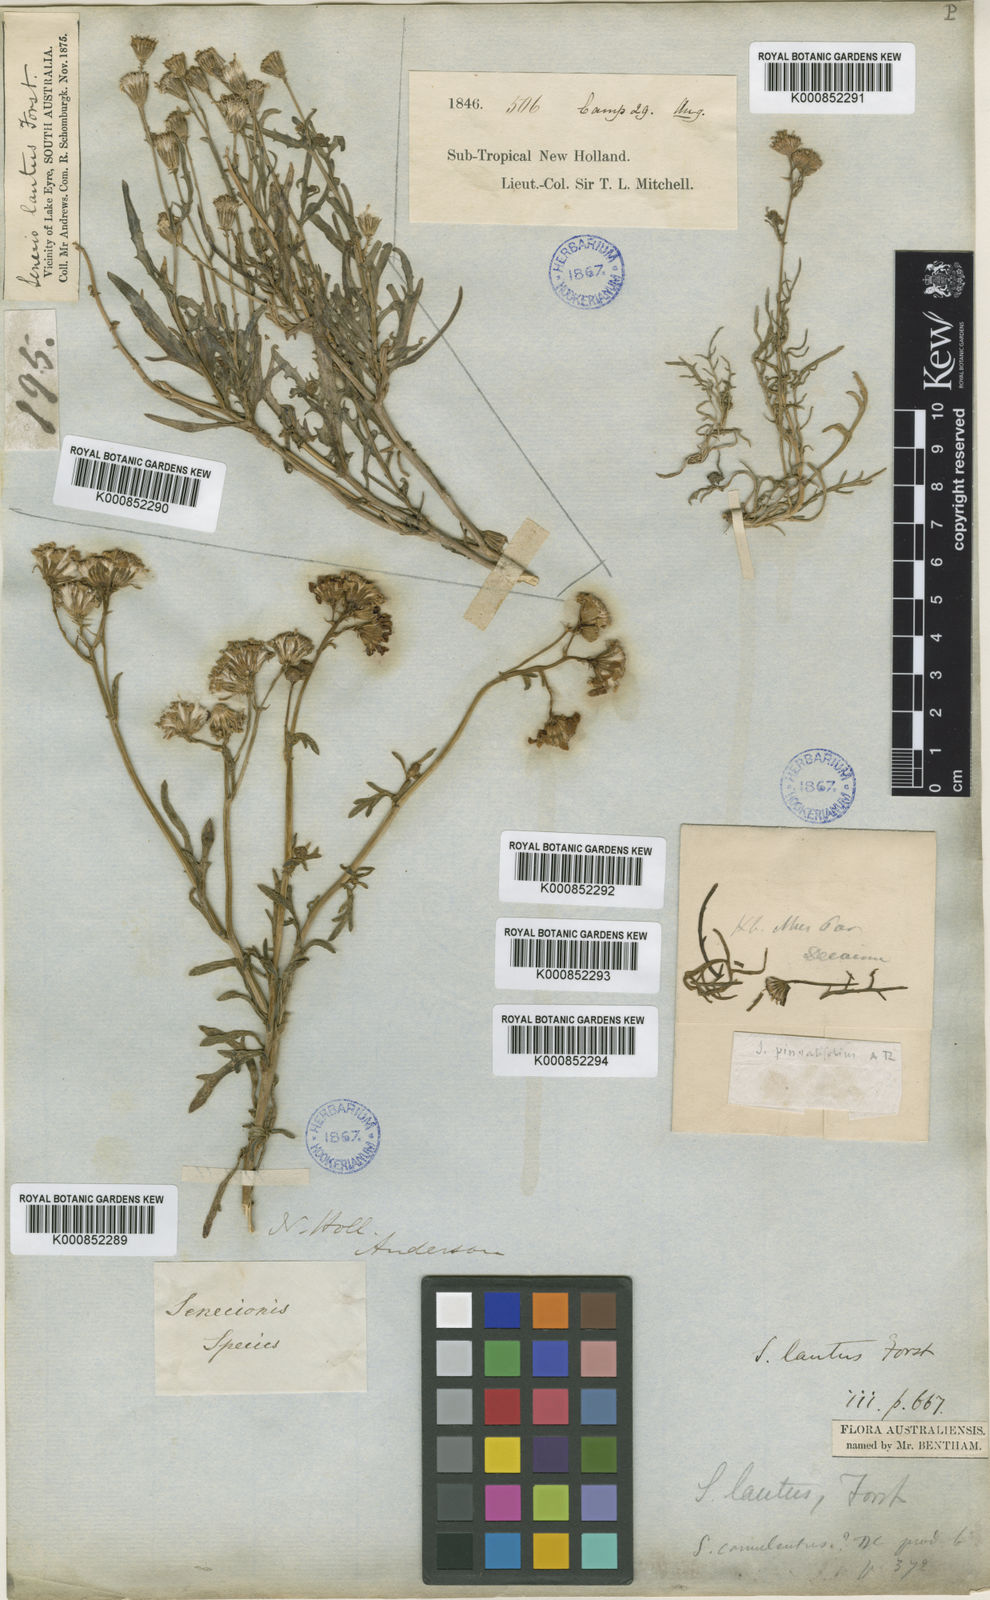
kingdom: Plantae
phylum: Tracheophyta
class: Magnoliopsida
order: Asterales
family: Asteraceae
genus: Senecio
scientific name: Senecio
